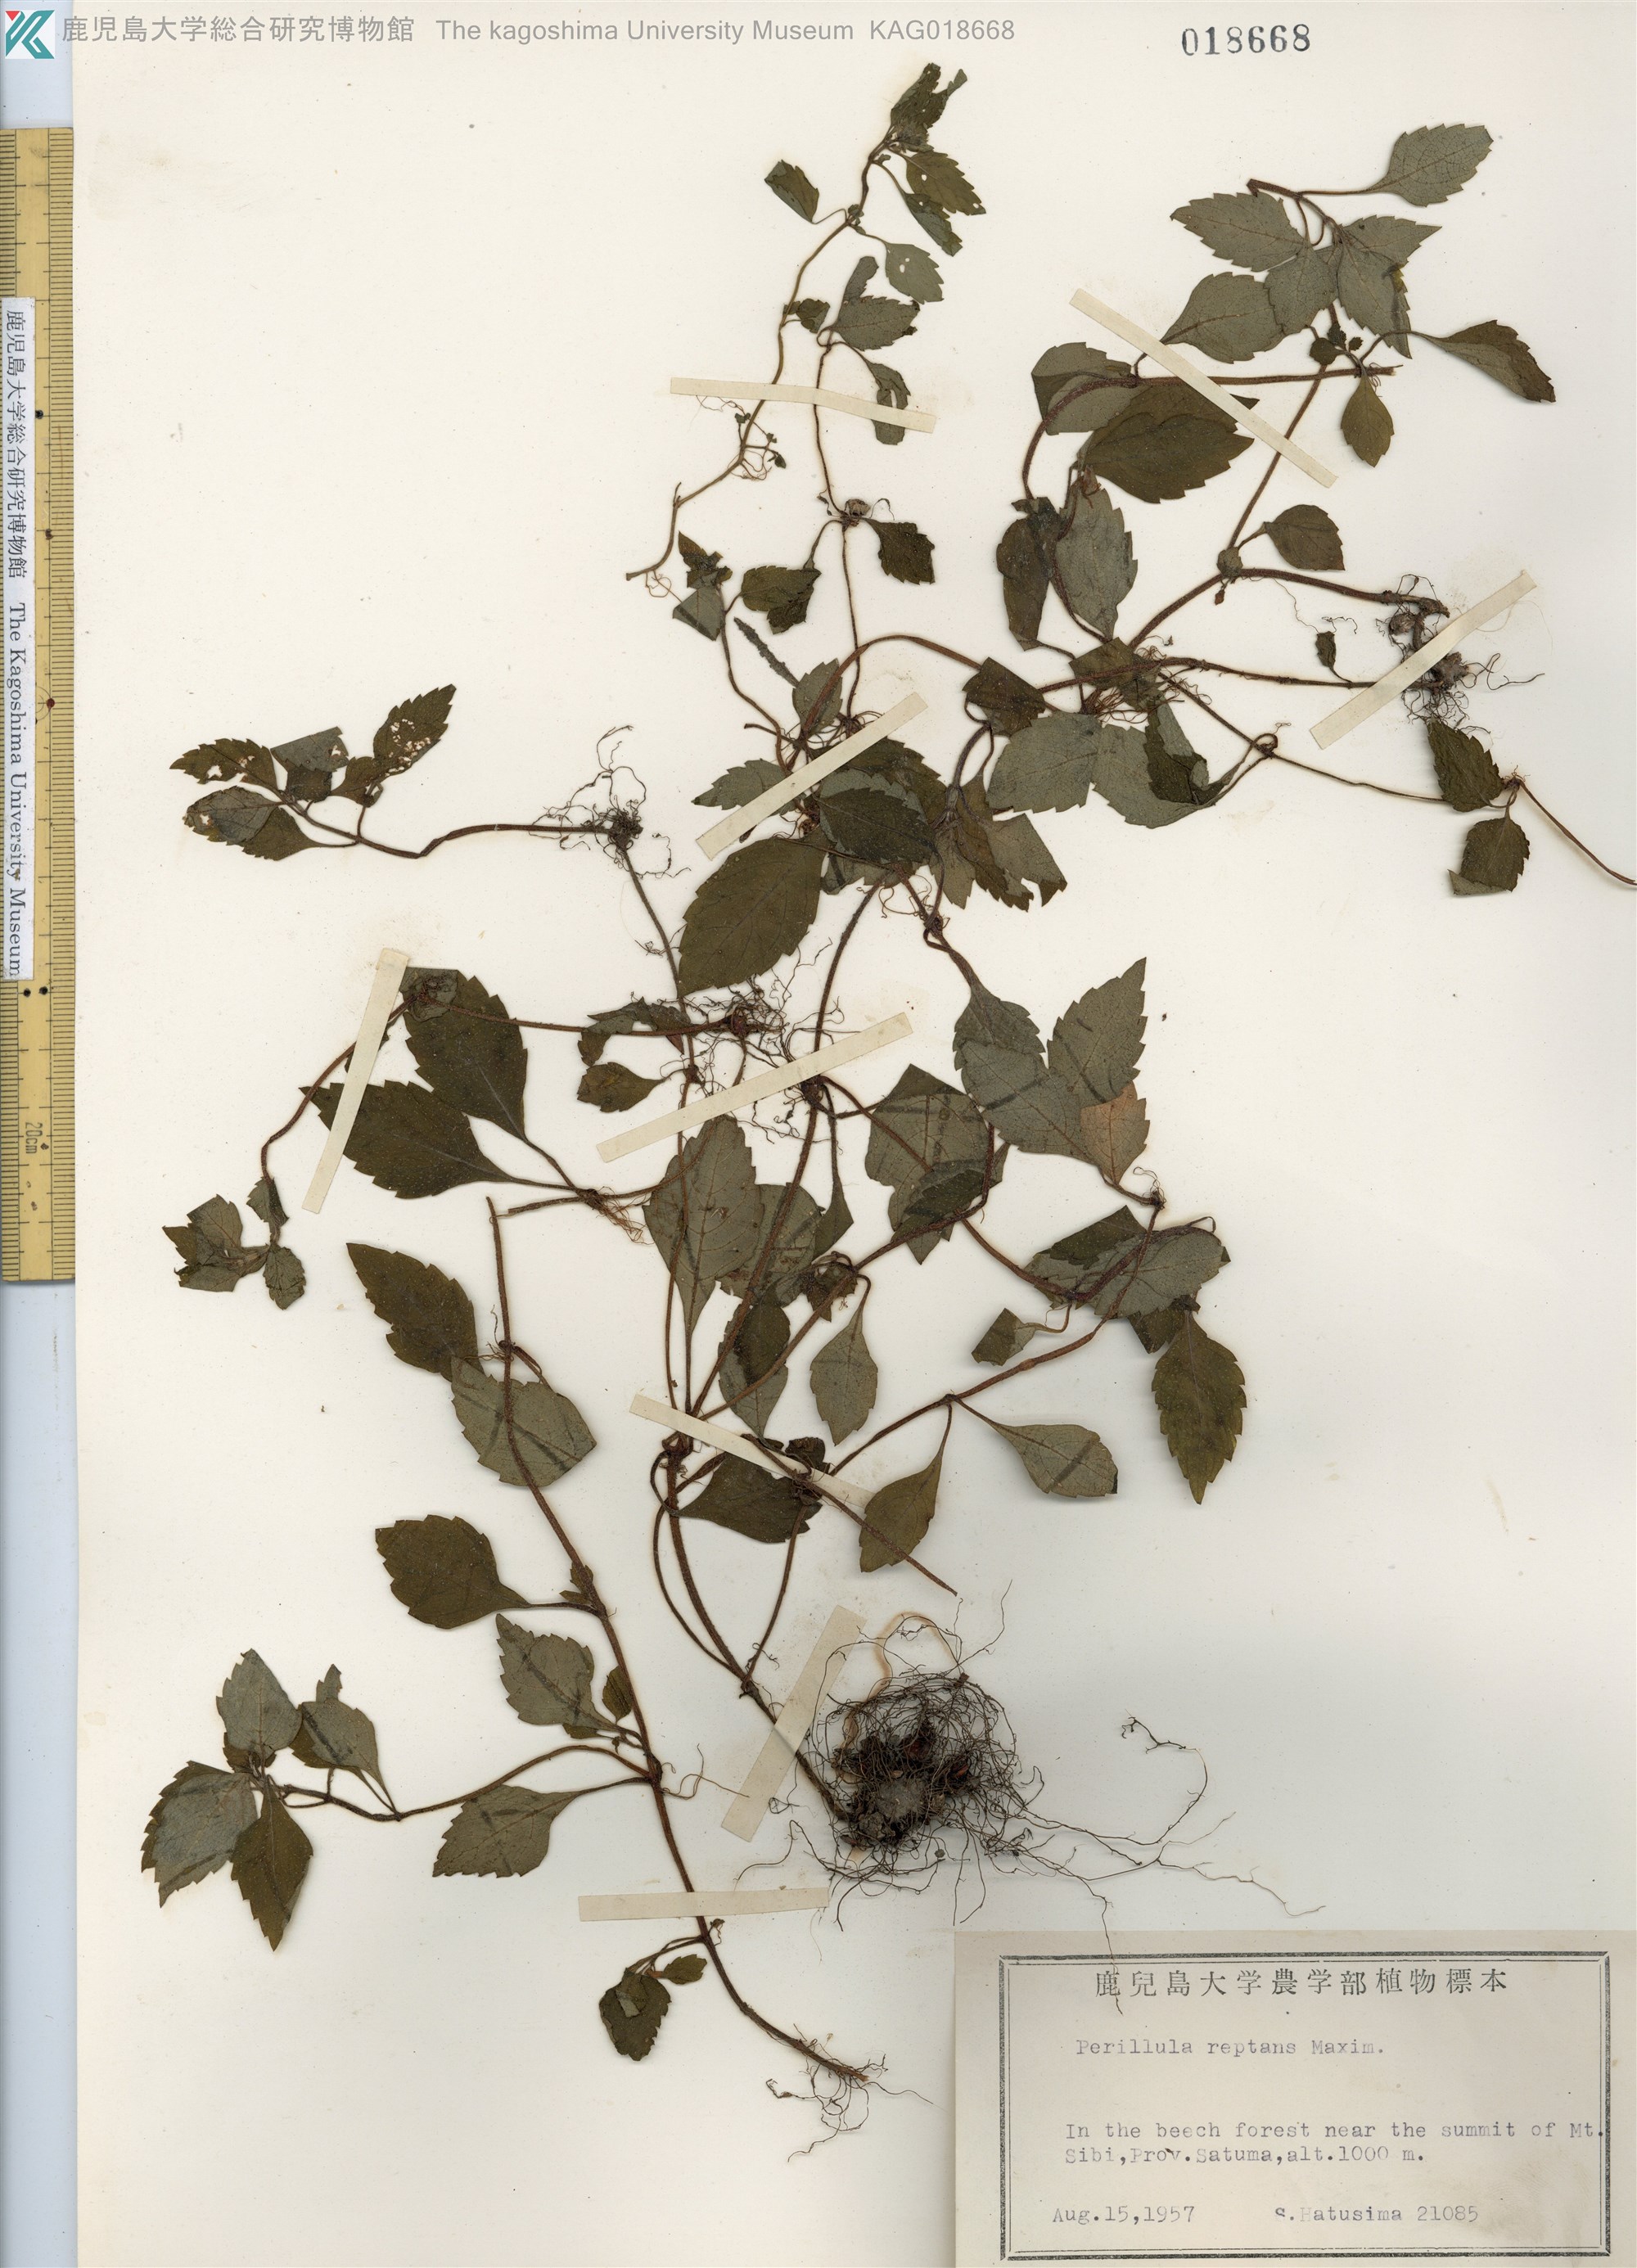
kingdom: Plantae
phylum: Tracheophyta
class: Magnoliopsida
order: Lamiales
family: Lamiaceae
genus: Perillula
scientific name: Perillula reptans
